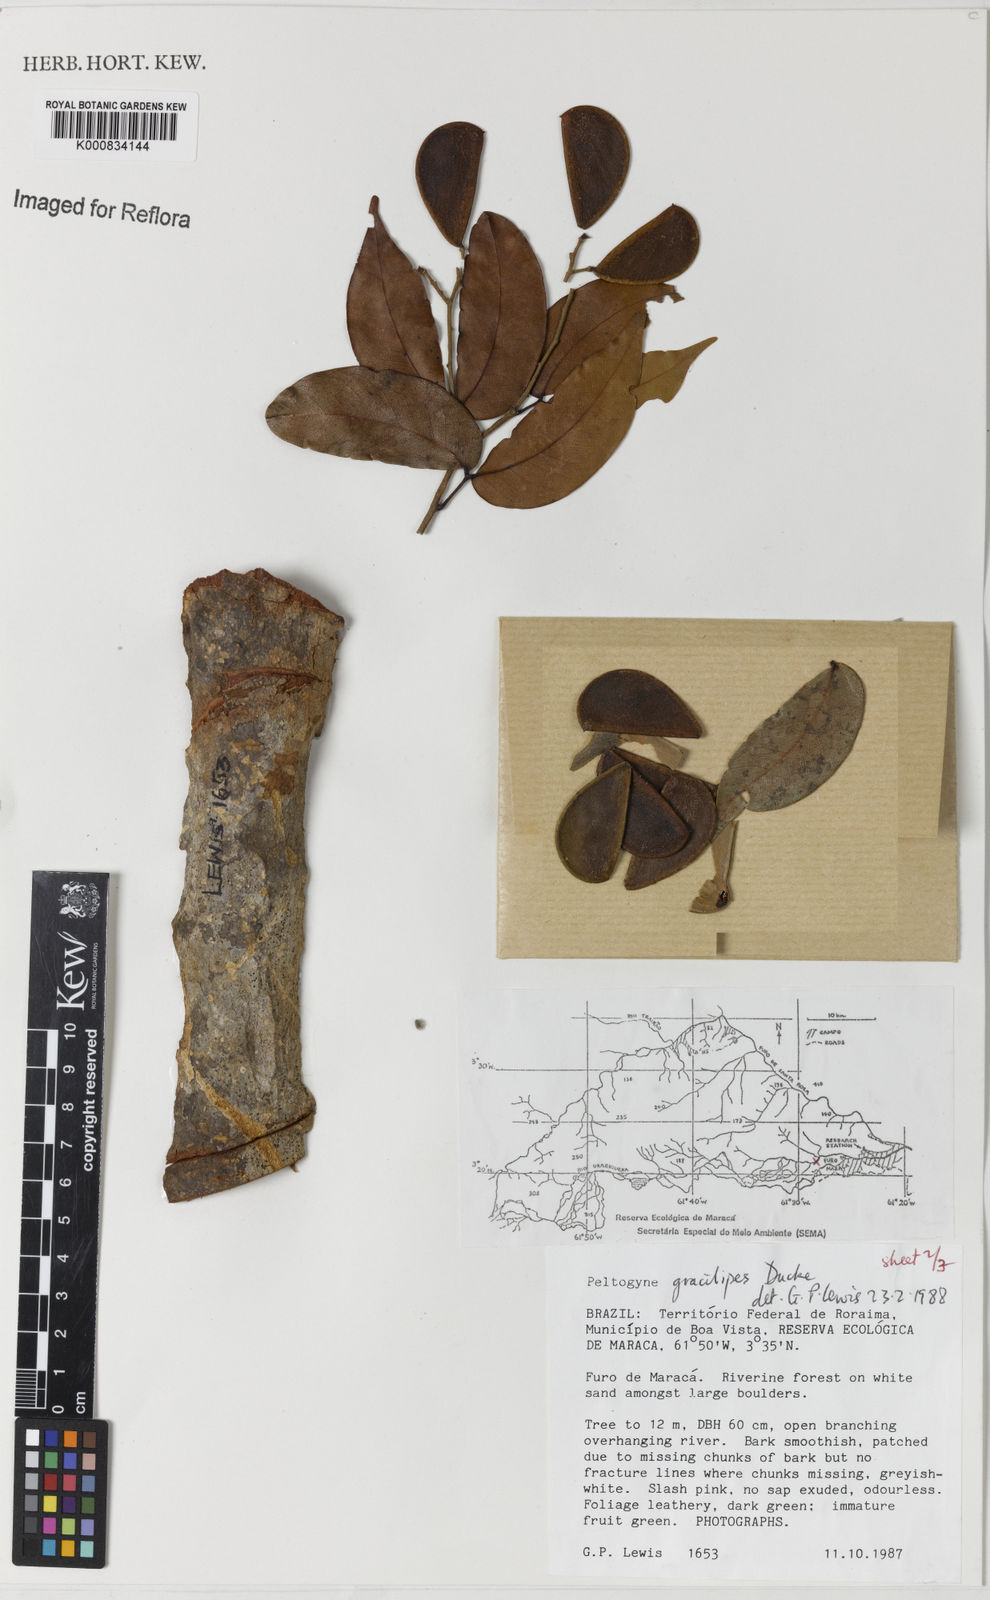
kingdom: Plantae
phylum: Tracheophyta
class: Magnoliopsida
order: Fabales
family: Fabaceae
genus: Peltogyne
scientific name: Peltogyne gracilipes
